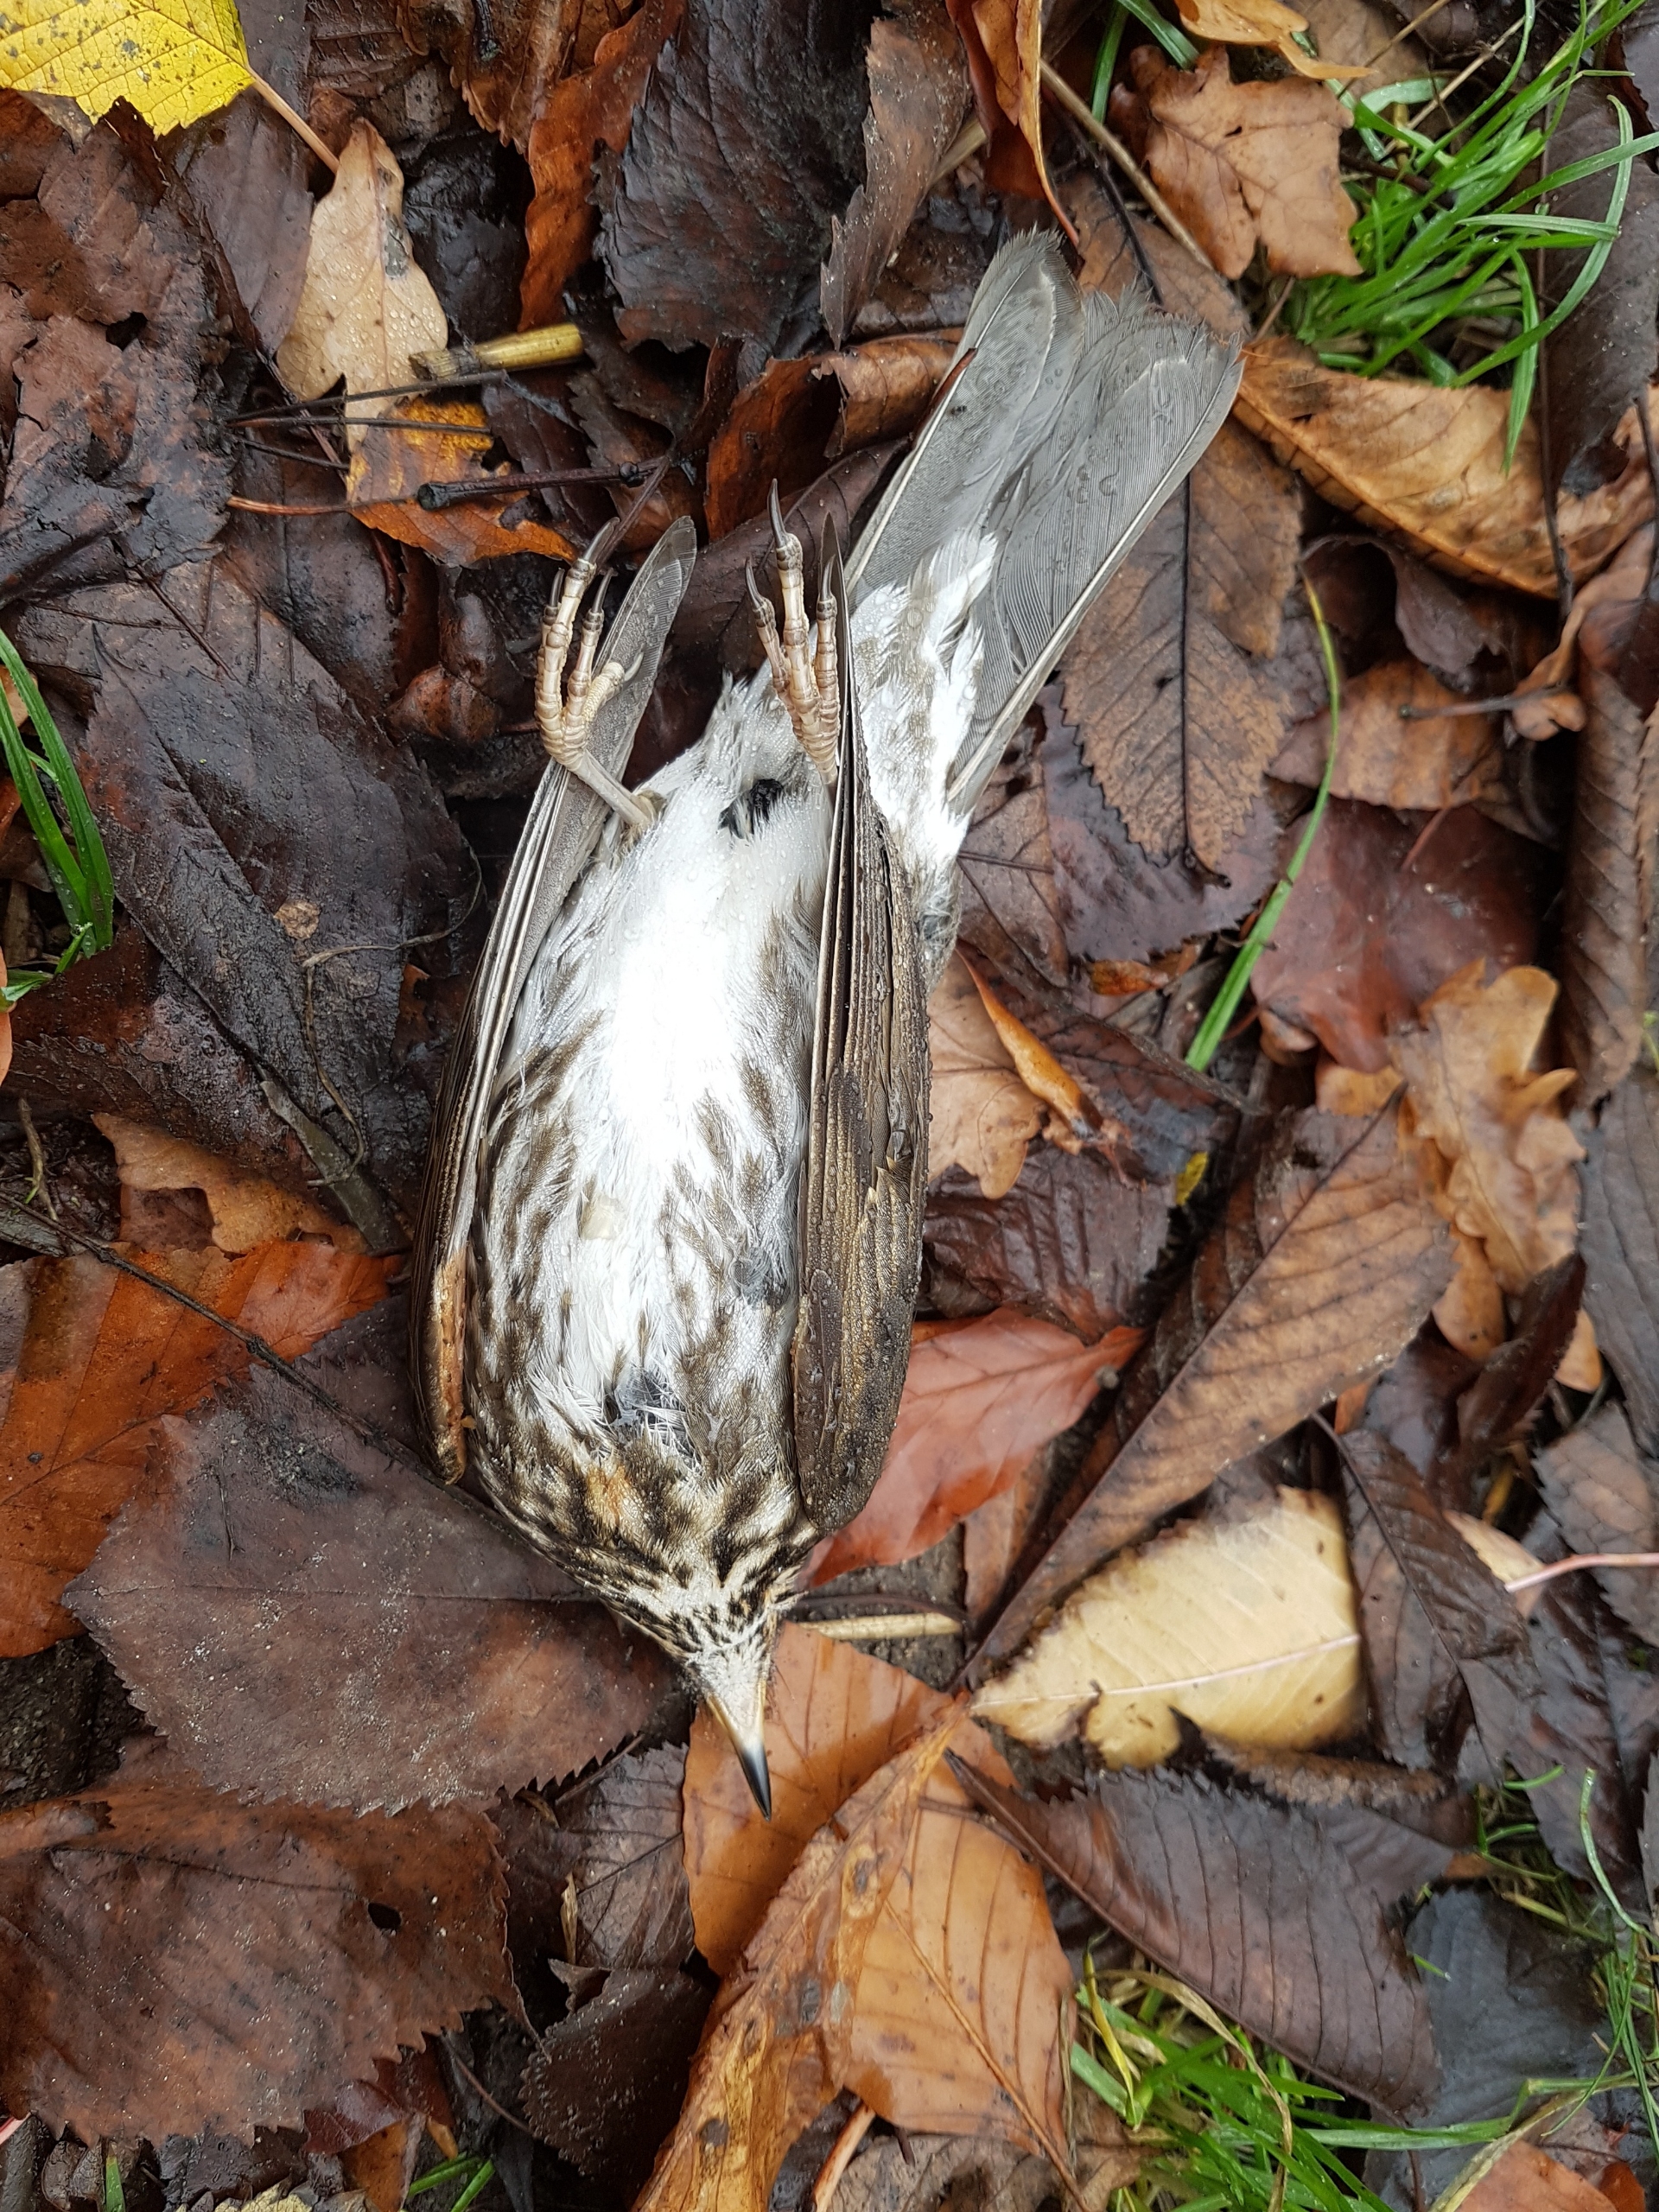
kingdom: Animalia
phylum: Chordata
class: Aves
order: Passeriformes
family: Turdidae
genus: Turdus
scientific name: Turdus iliacus
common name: Vindrossel
